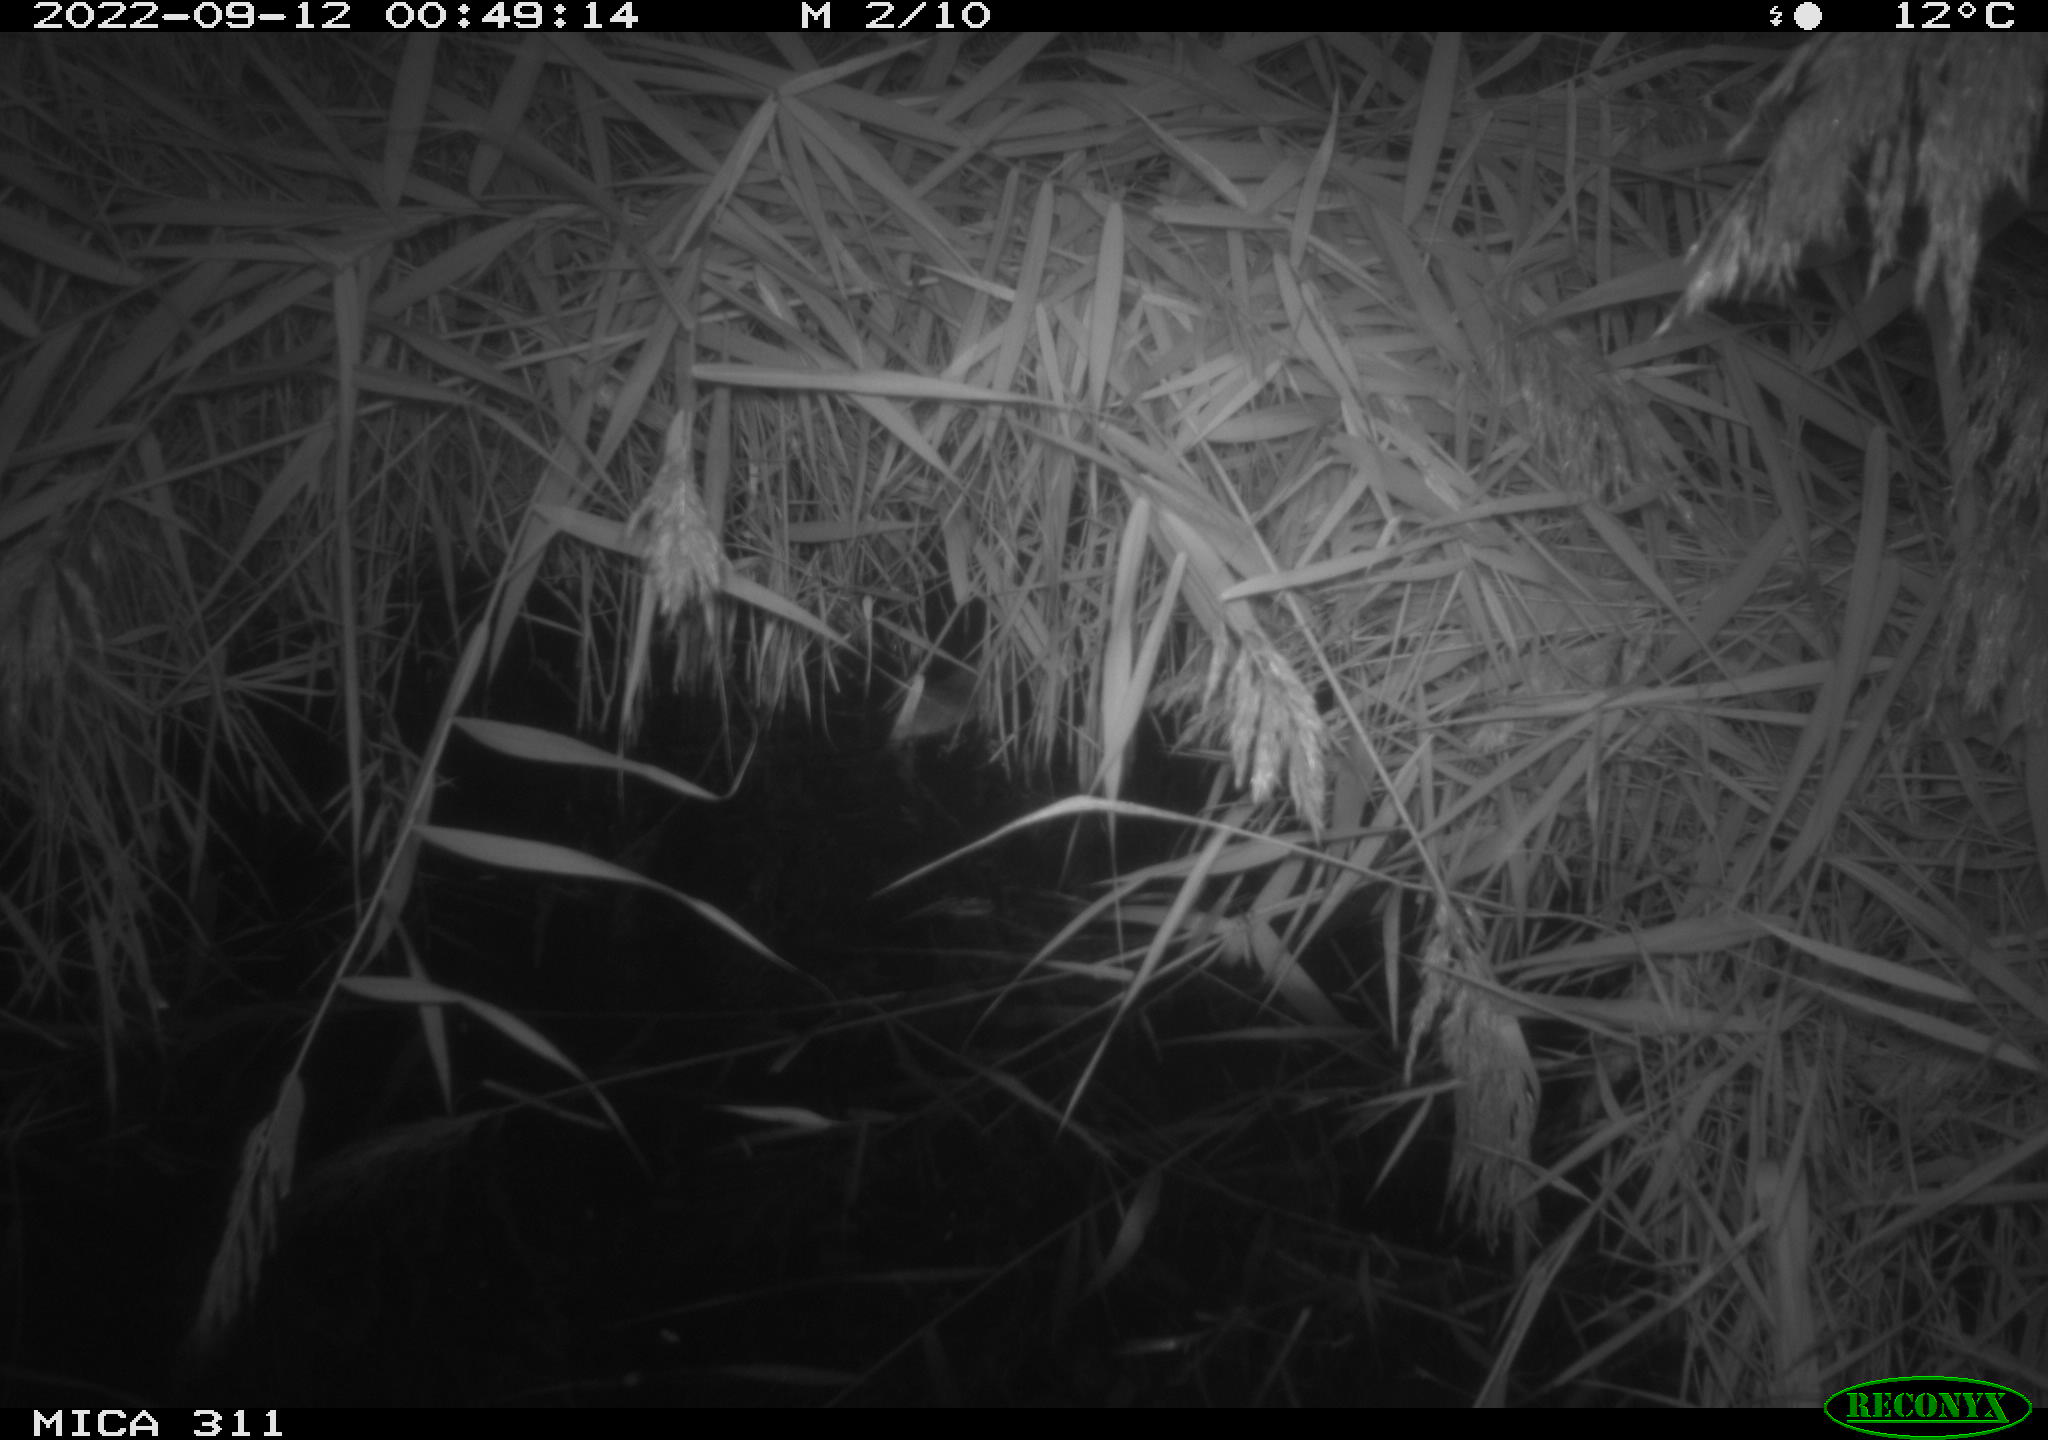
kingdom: Animalia
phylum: Chordata
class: Mammalia
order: Rodentia
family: Muridae
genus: Rattus
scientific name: Rattus norvegicus
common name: Brown rat
